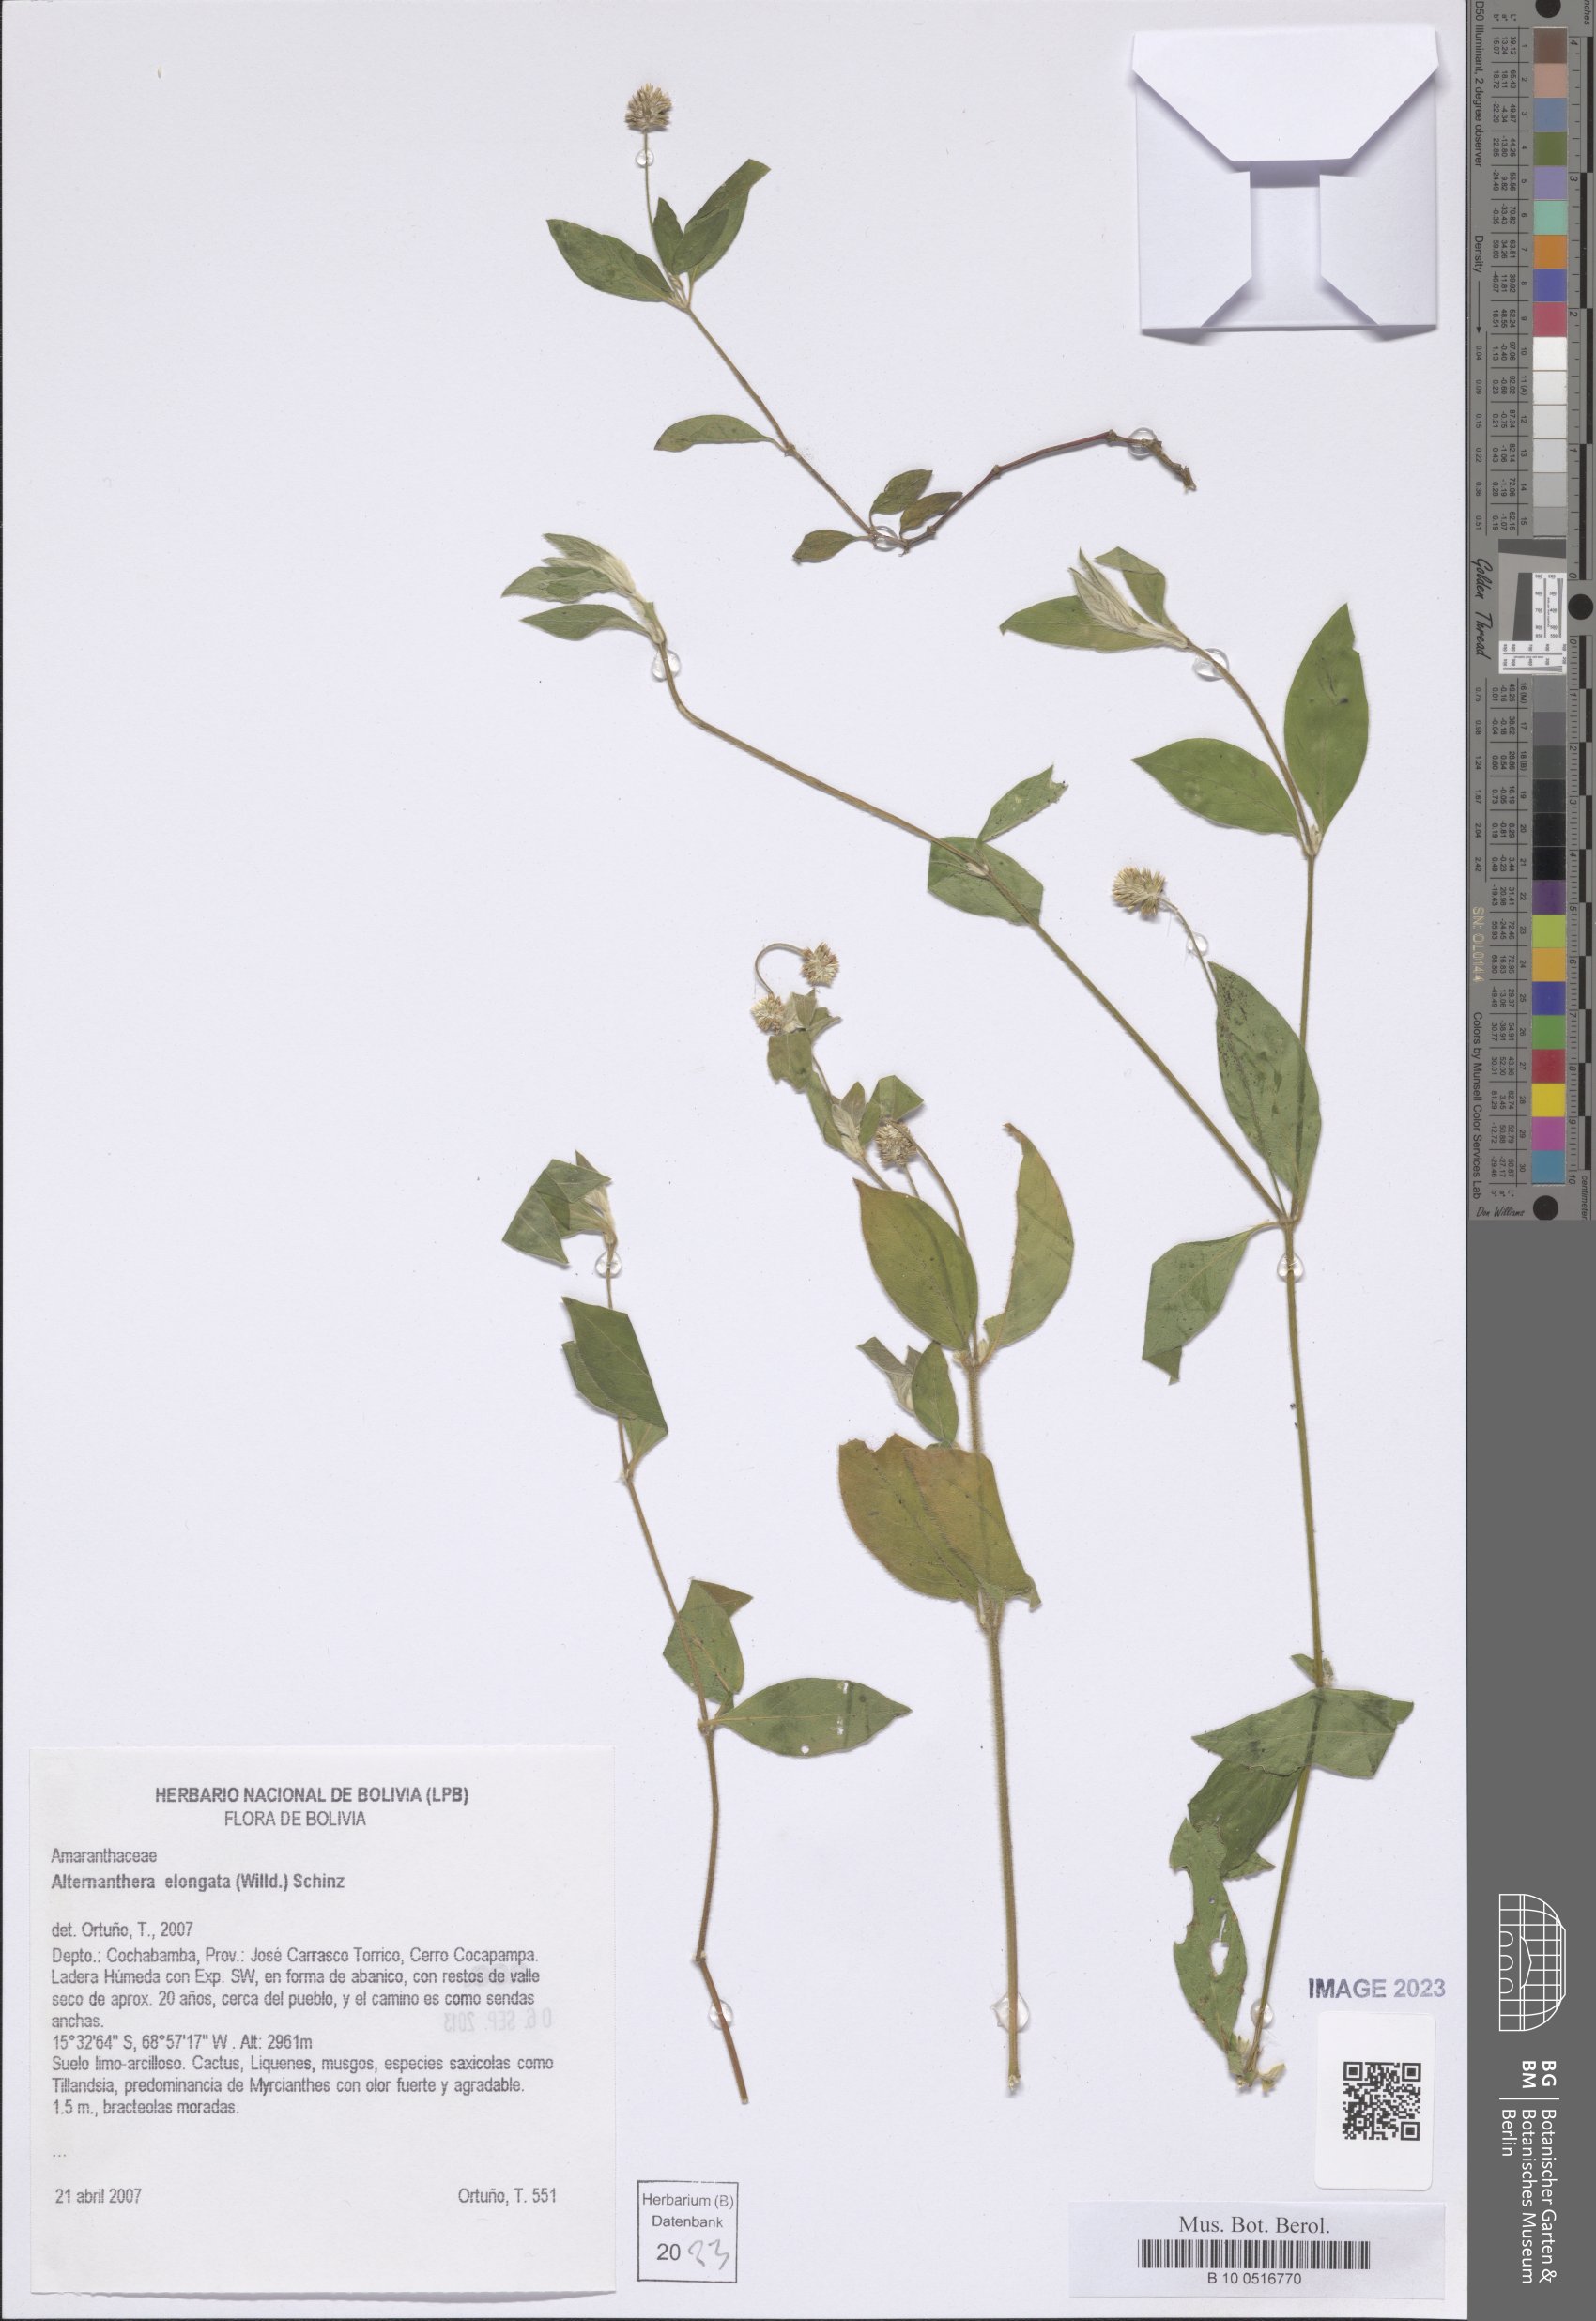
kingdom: Plantae
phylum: Tracheophyta
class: Magnoliopsida
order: Caryophyllales
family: Amaranthaceae
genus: Alternanthera
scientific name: Alternanthera elongata
